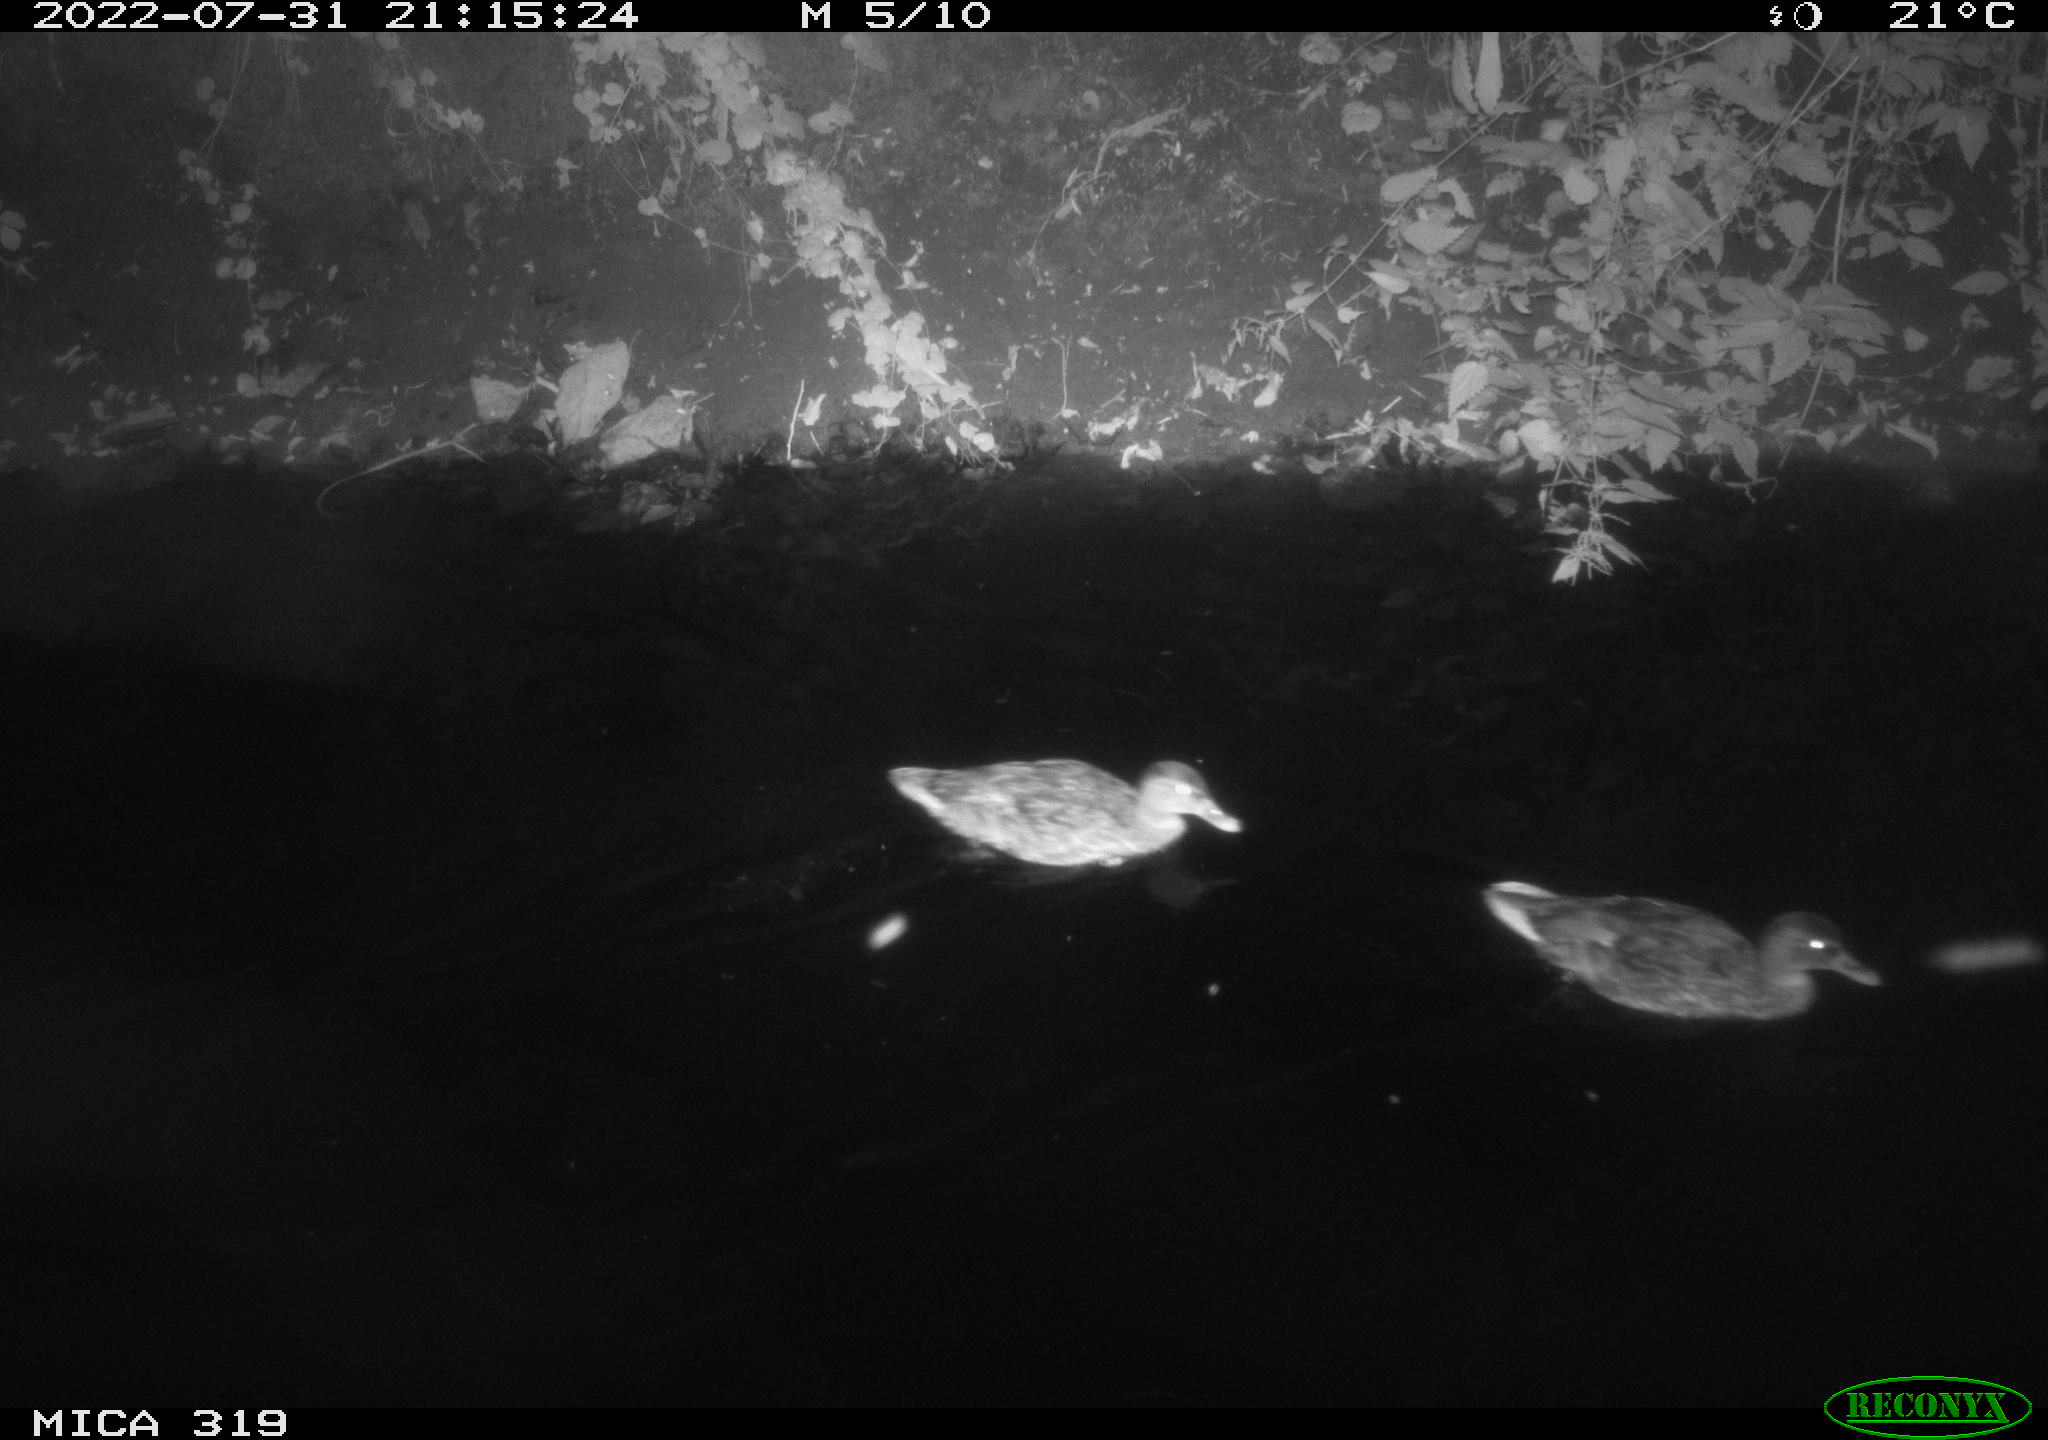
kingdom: Animalia
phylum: Chordata
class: Aves
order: Anseriformes
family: Anatidae
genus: Anas
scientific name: Anas
